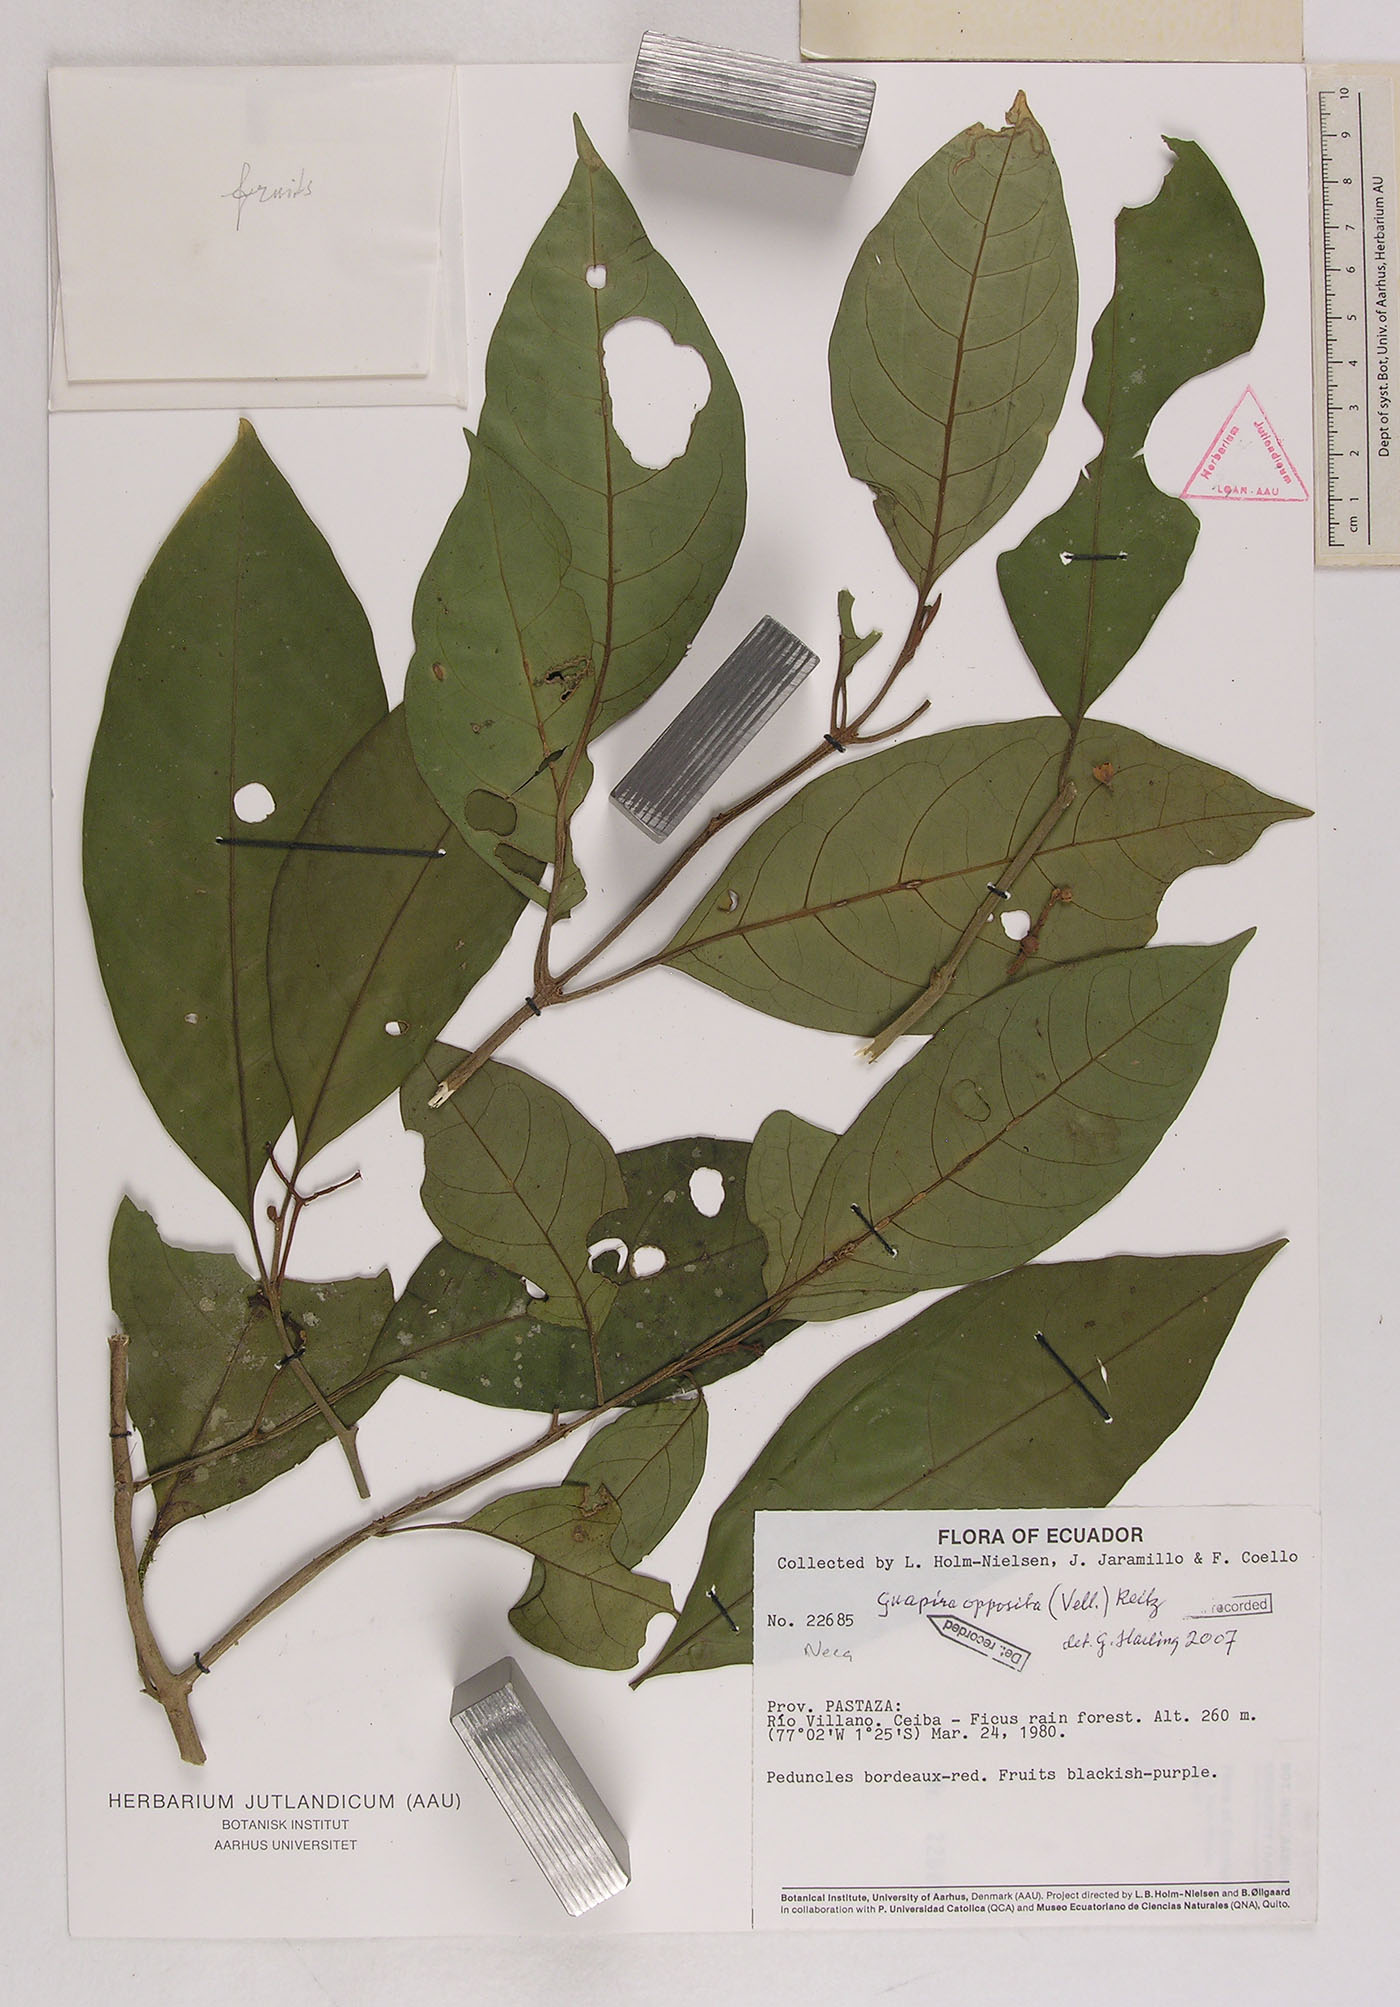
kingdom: Plantae
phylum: Tracheophyta
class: Magnoliopsida
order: Caryophyllales
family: Nyctaginaceae
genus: Guapira
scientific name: Guapira opposita
